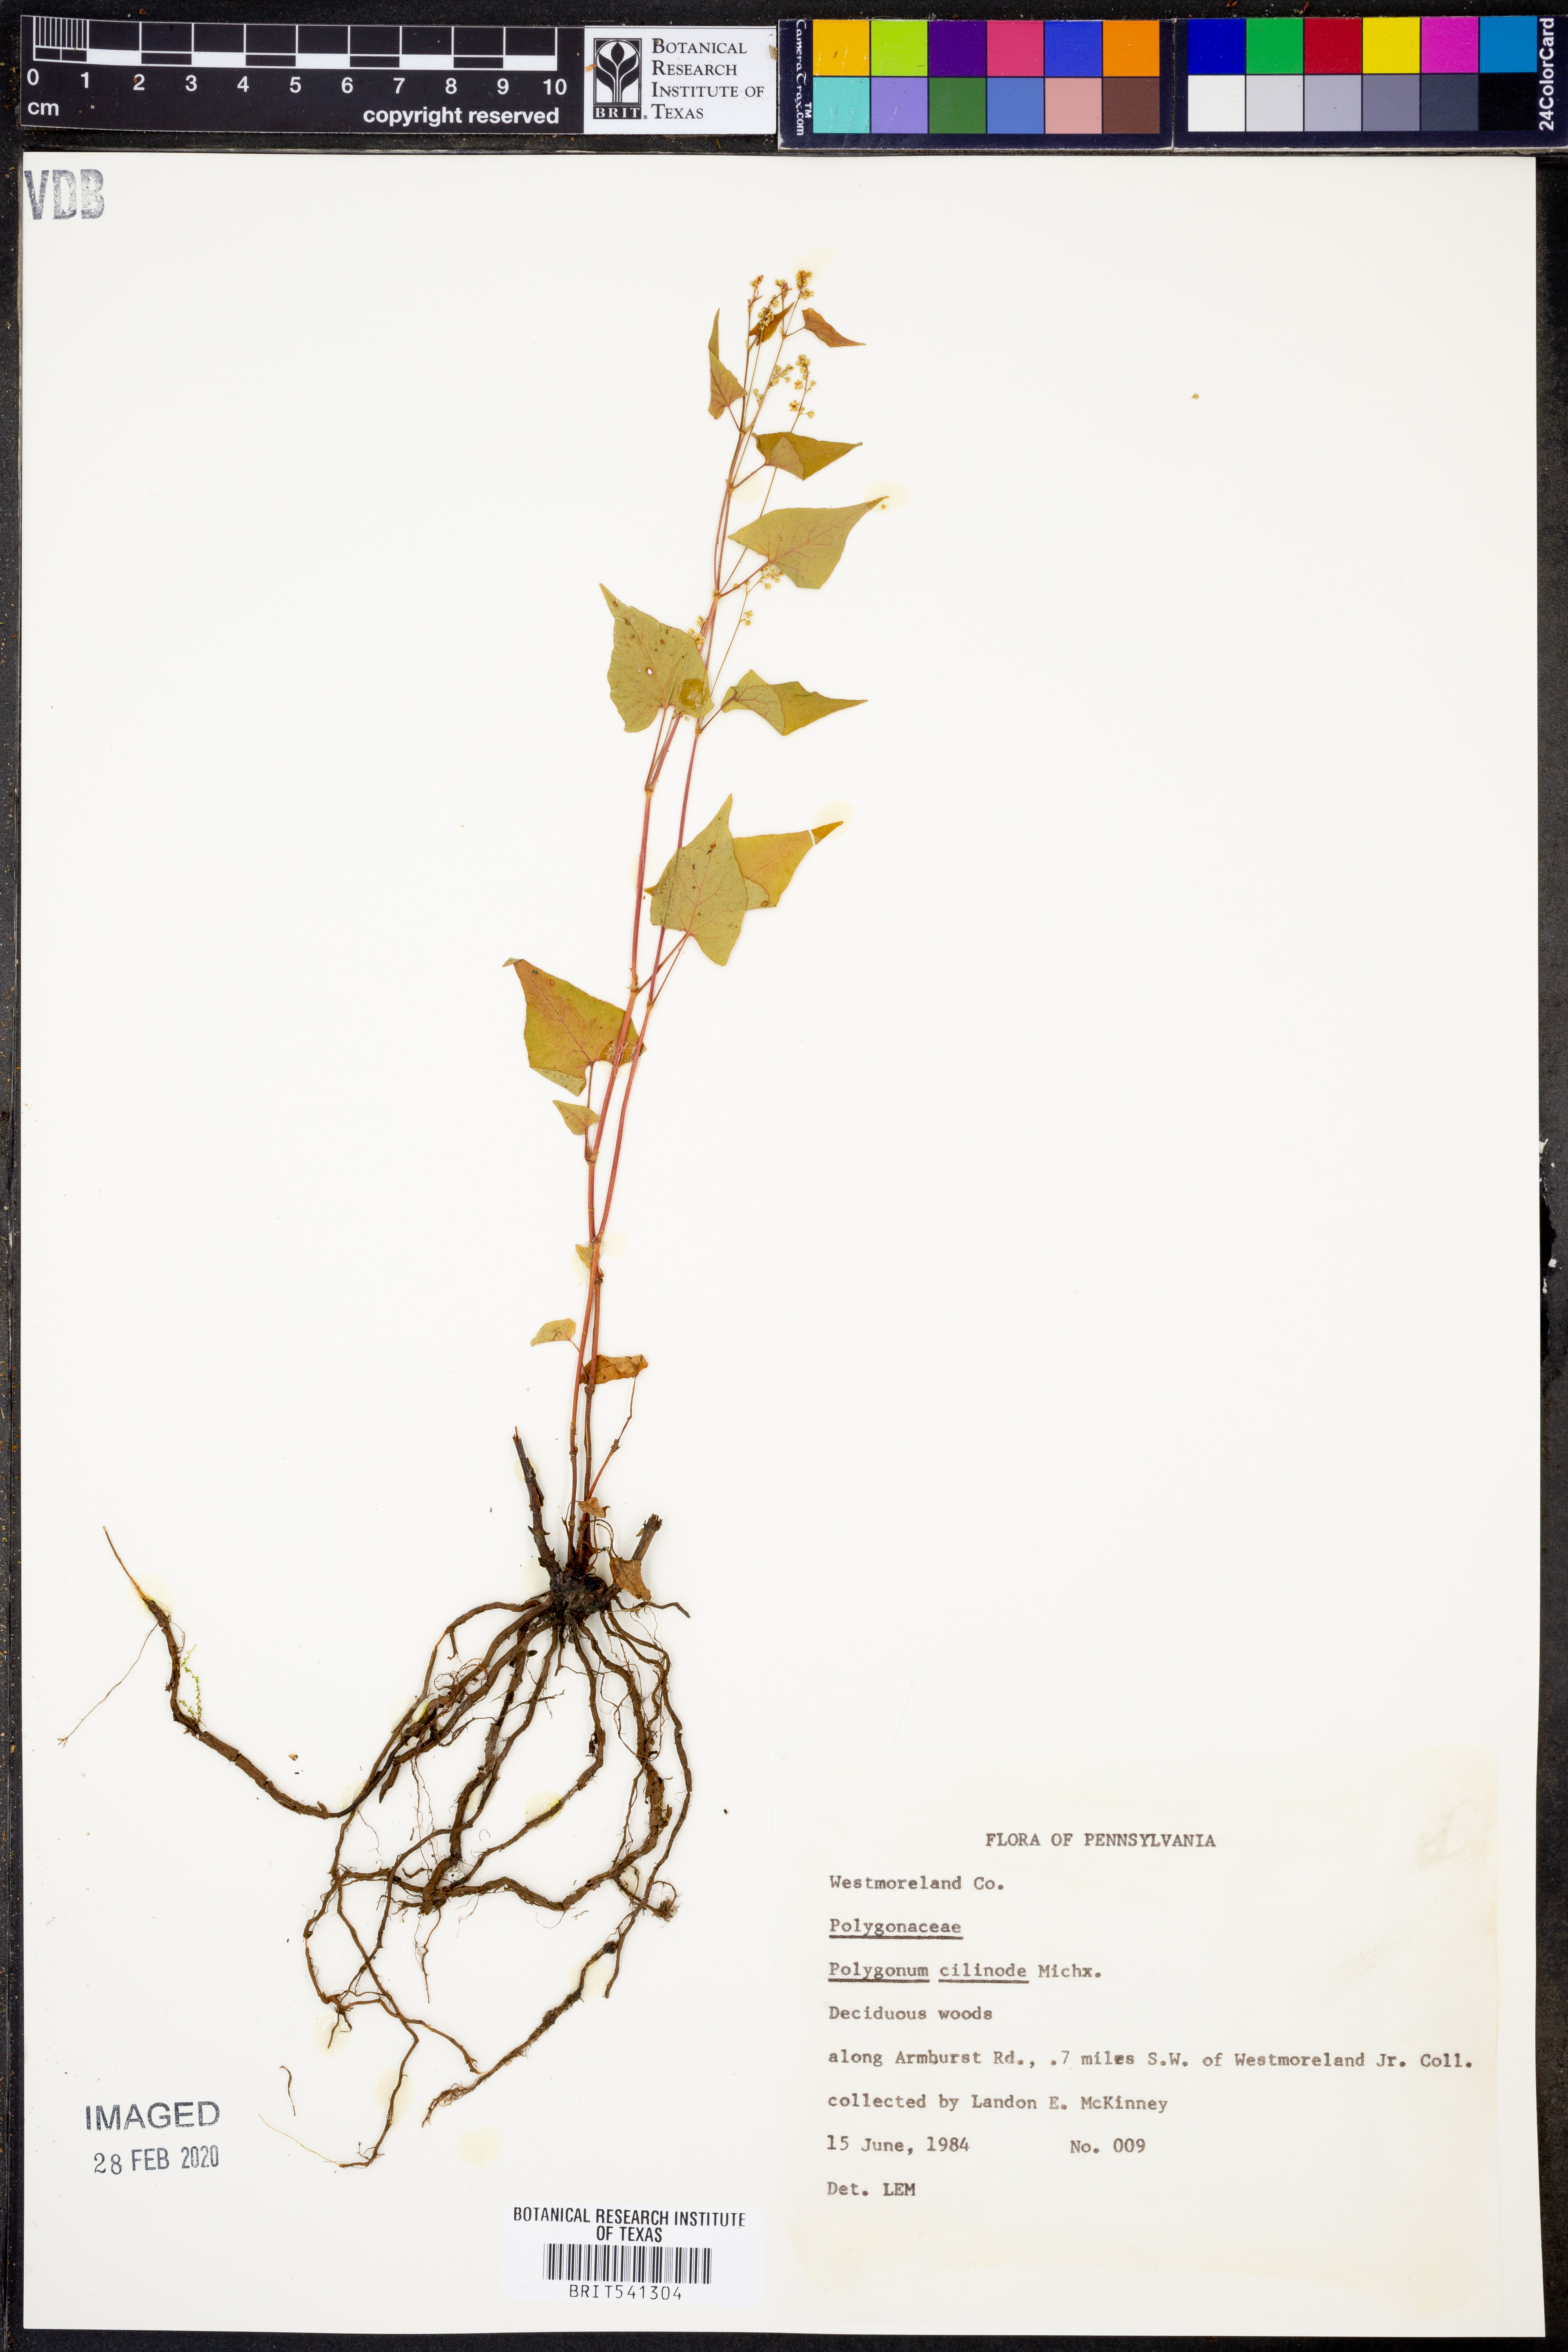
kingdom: Plantae
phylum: Tracheophyta
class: Magnoliopsida
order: Caryophyllales
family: Polygonaceae
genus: Parogonum
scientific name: Parogonum ciliinode
